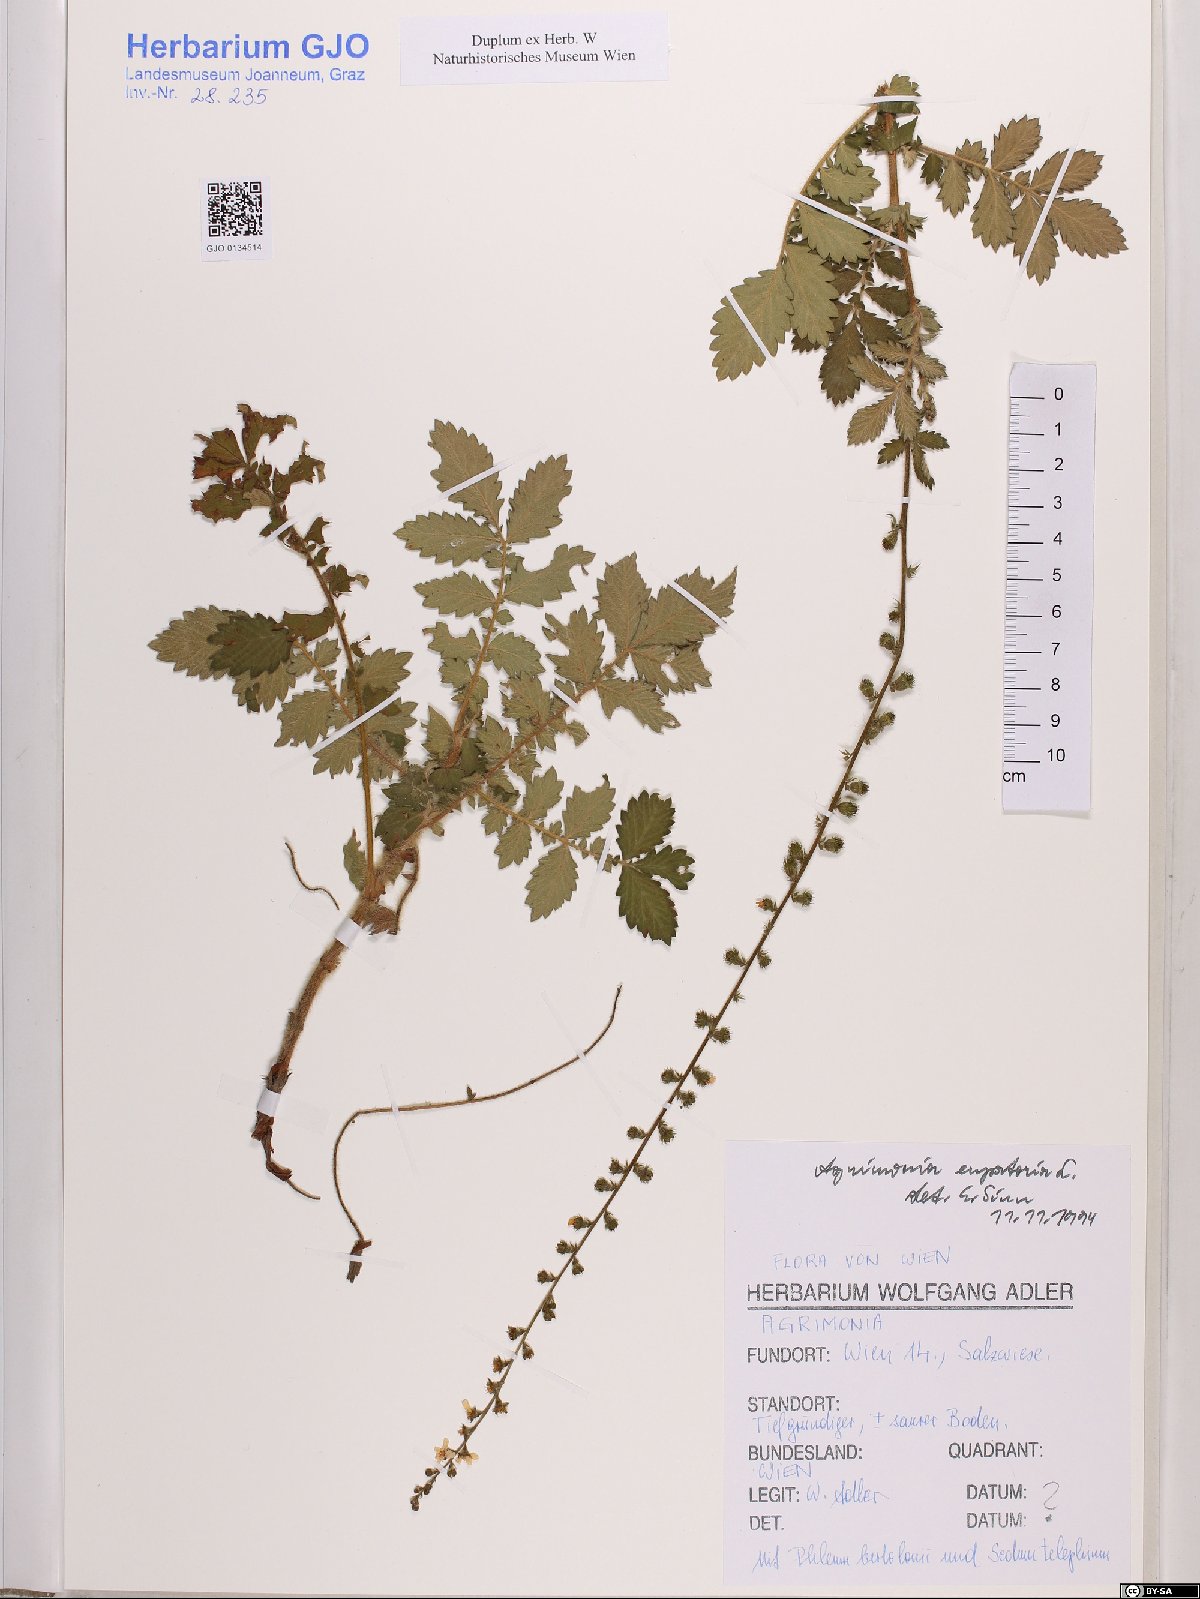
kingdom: Plantae
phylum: Tracheophyta
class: Magnoliopsida
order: Rosales
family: Rosaceae
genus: Agrimonia
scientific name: Agrimonia eupatoria
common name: Agrimony
